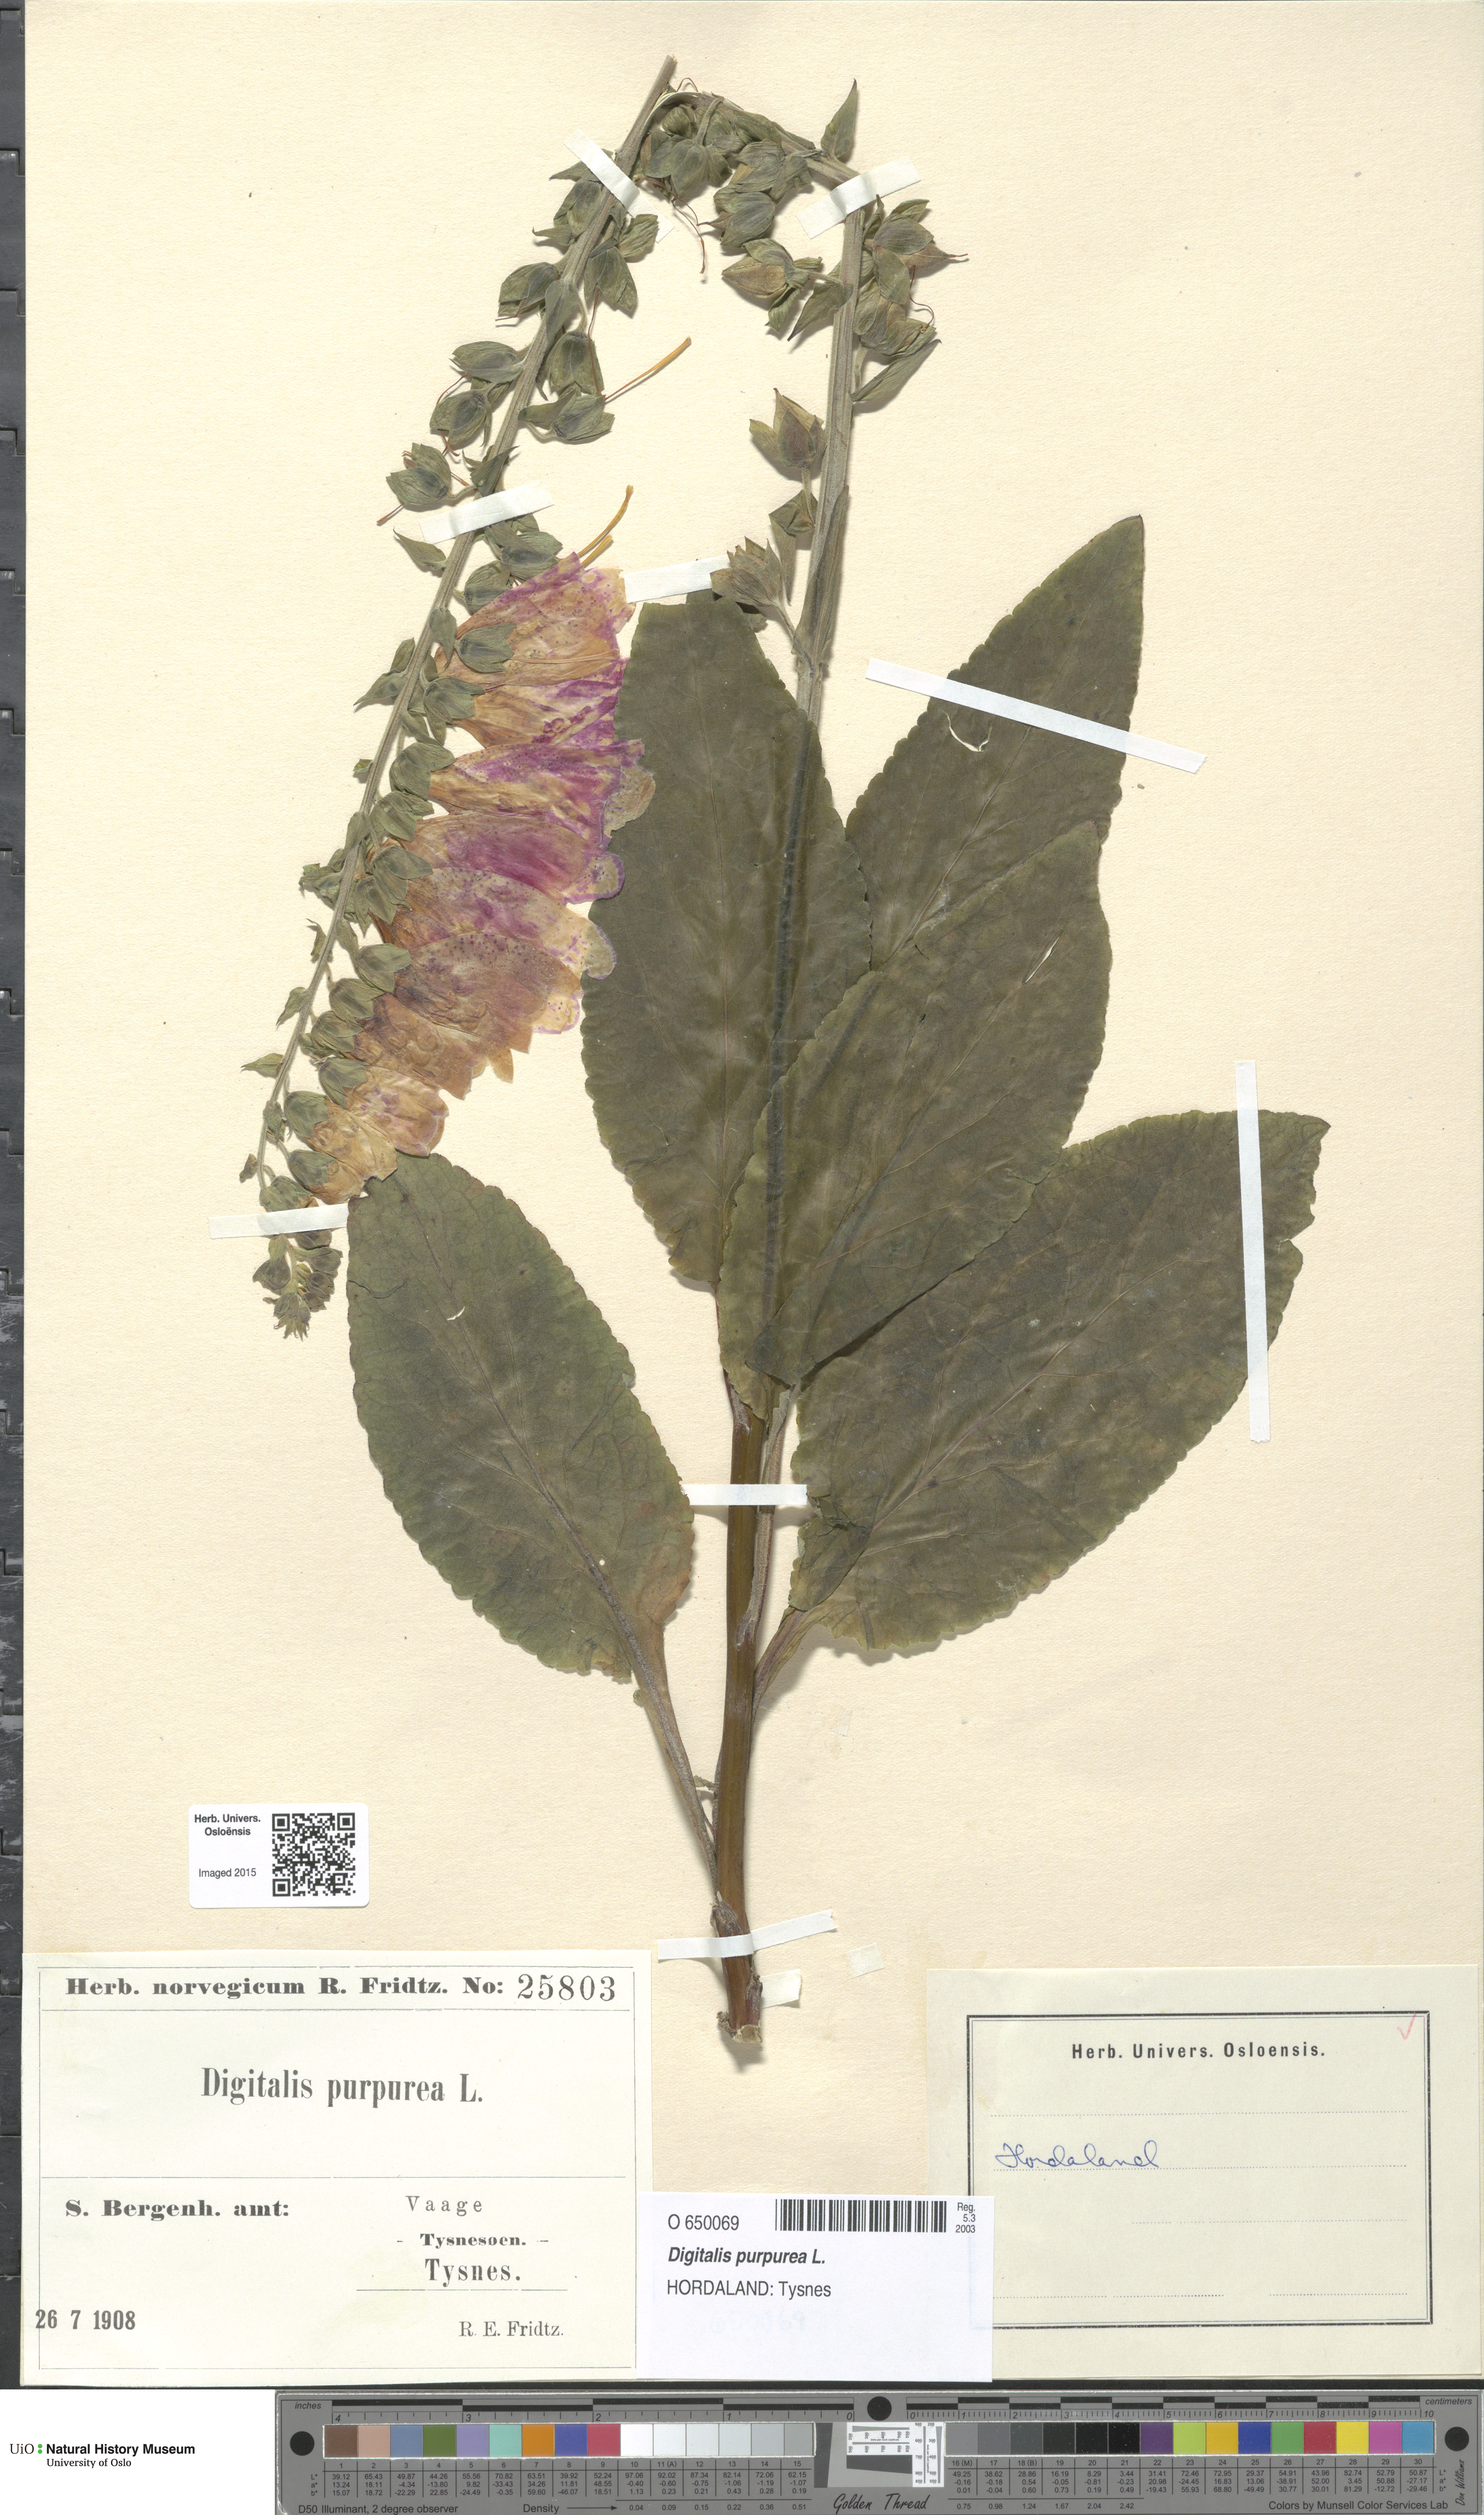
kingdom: Plantae
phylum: Tracheophyta
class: Magnoliopsida
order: Lamiales
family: Plantaginaceae
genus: Digitalis
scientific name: Digitalis purpurea
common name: Foxglove
